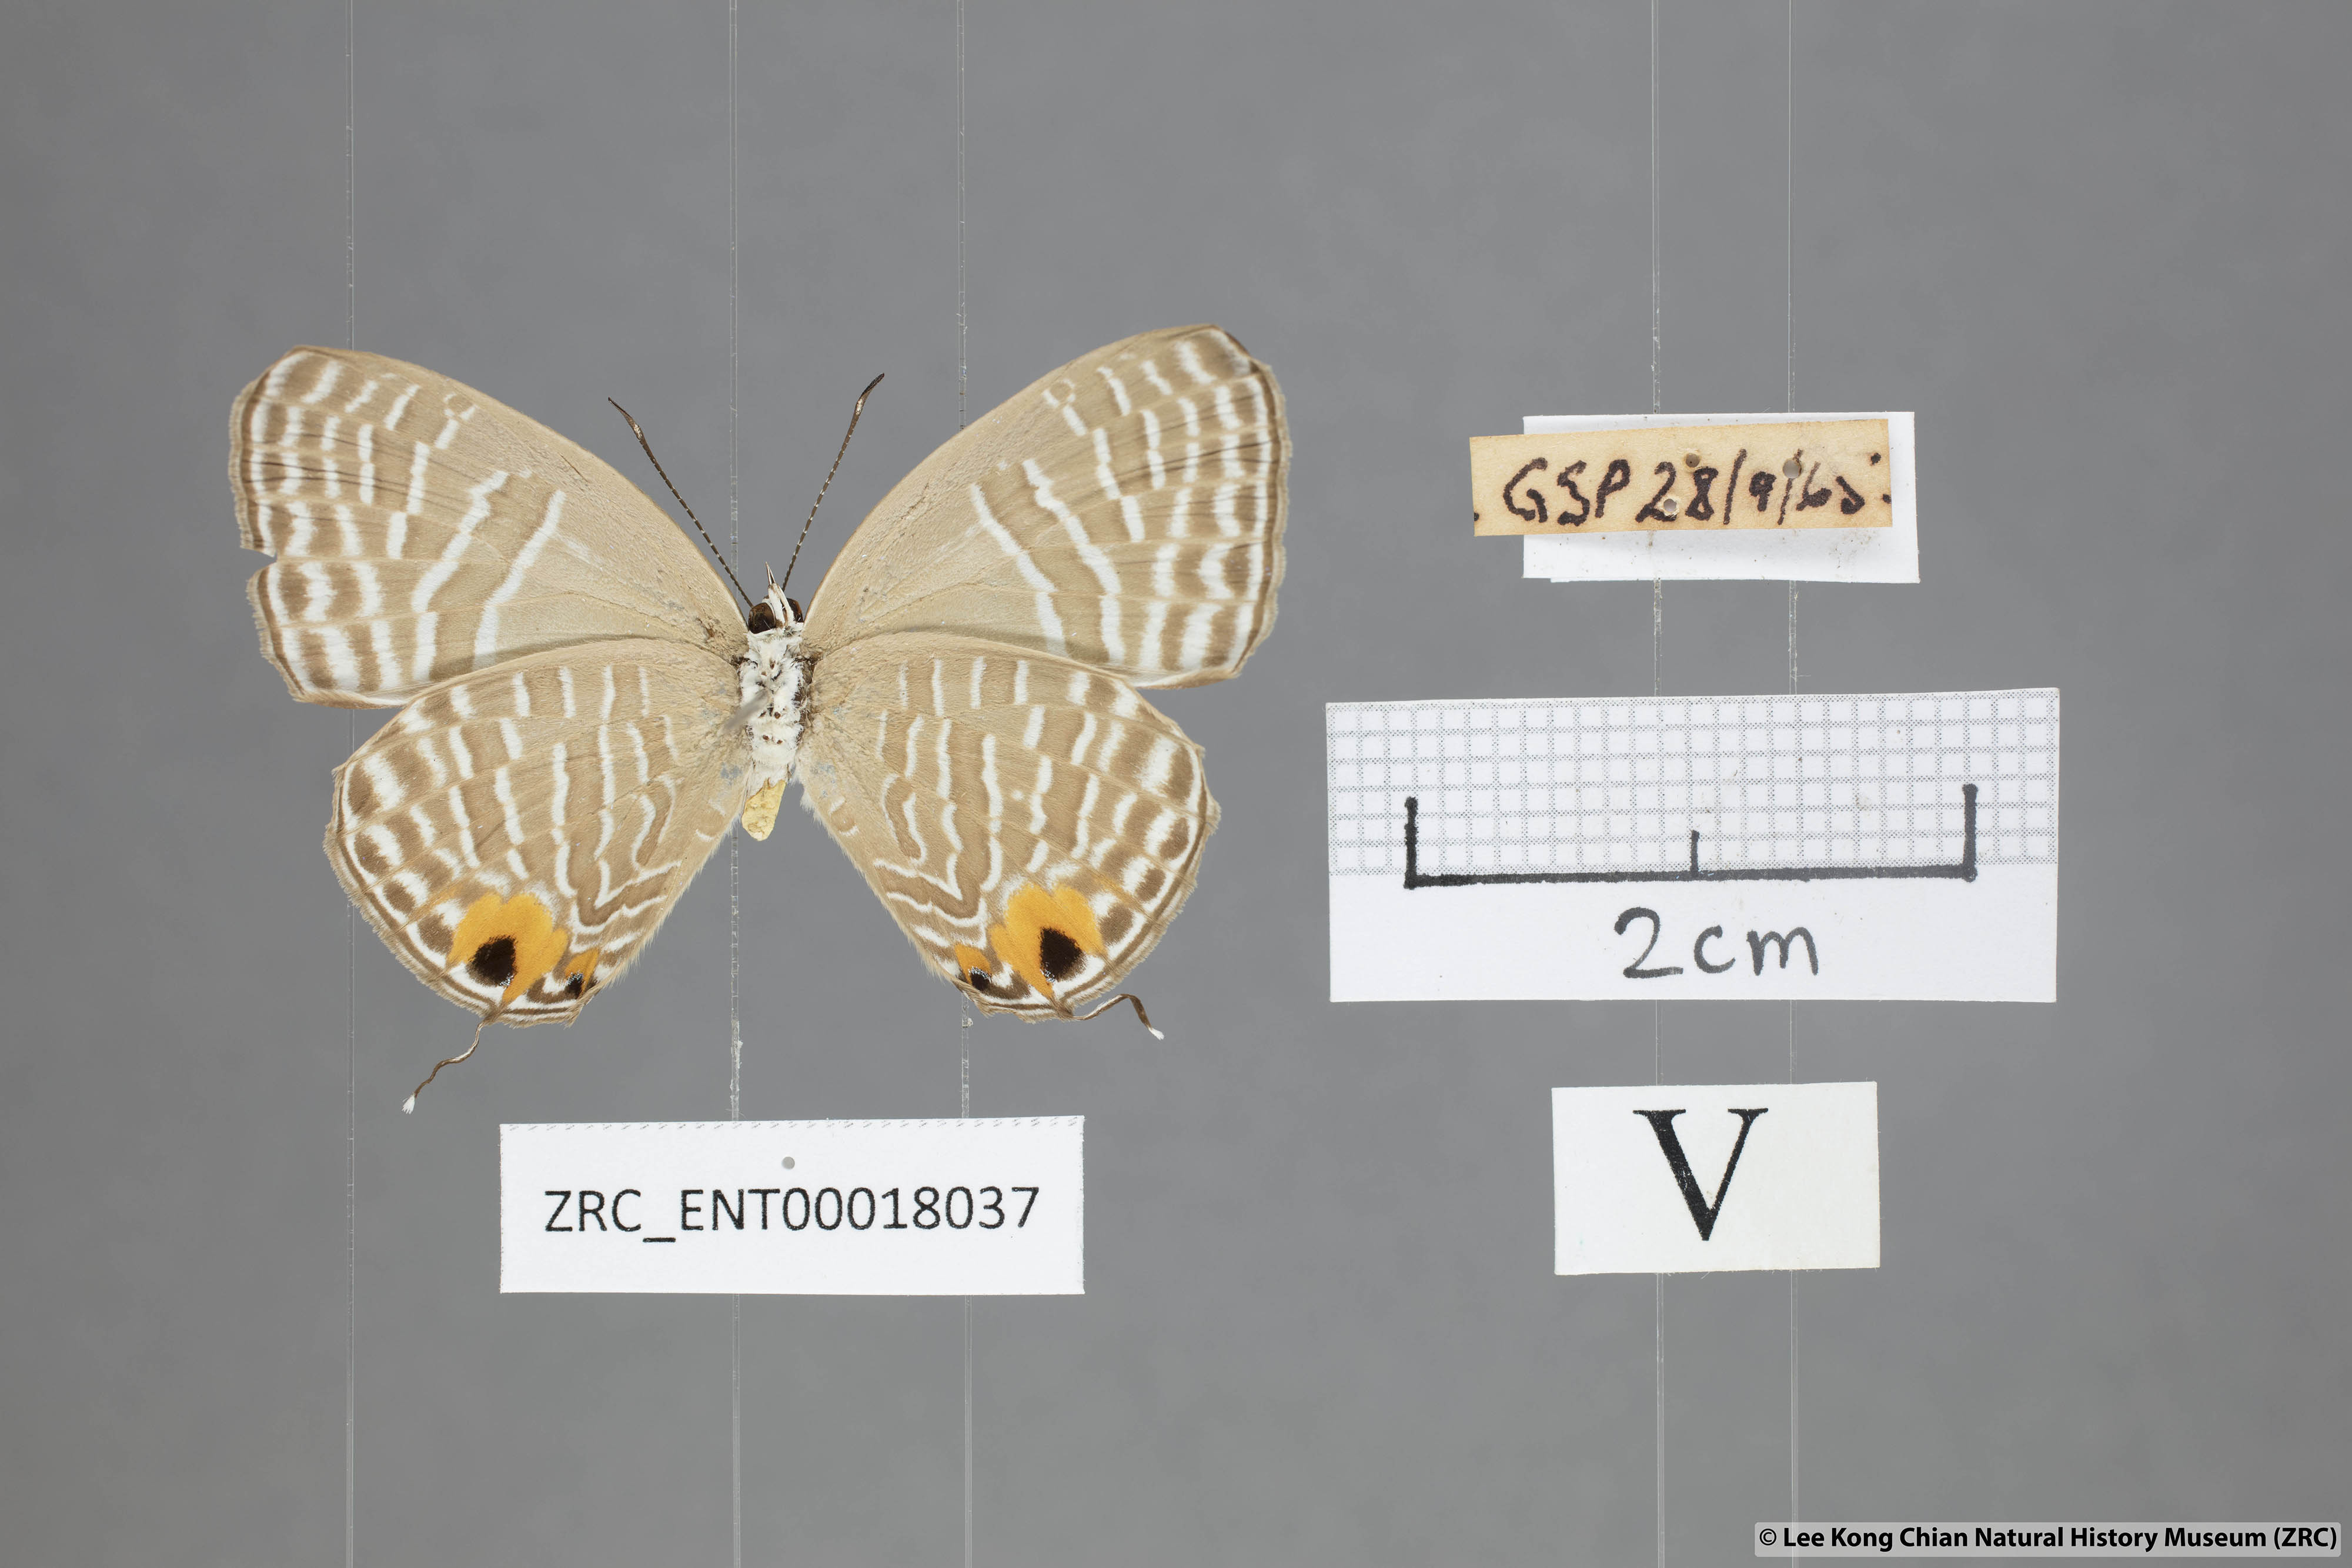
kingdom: Animalia
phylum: Arthropoda
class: Insecta
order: Lepidoptera
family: Lycaenidae
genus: Jamides
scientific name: Jamides alecto
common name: Metallic cerulean
